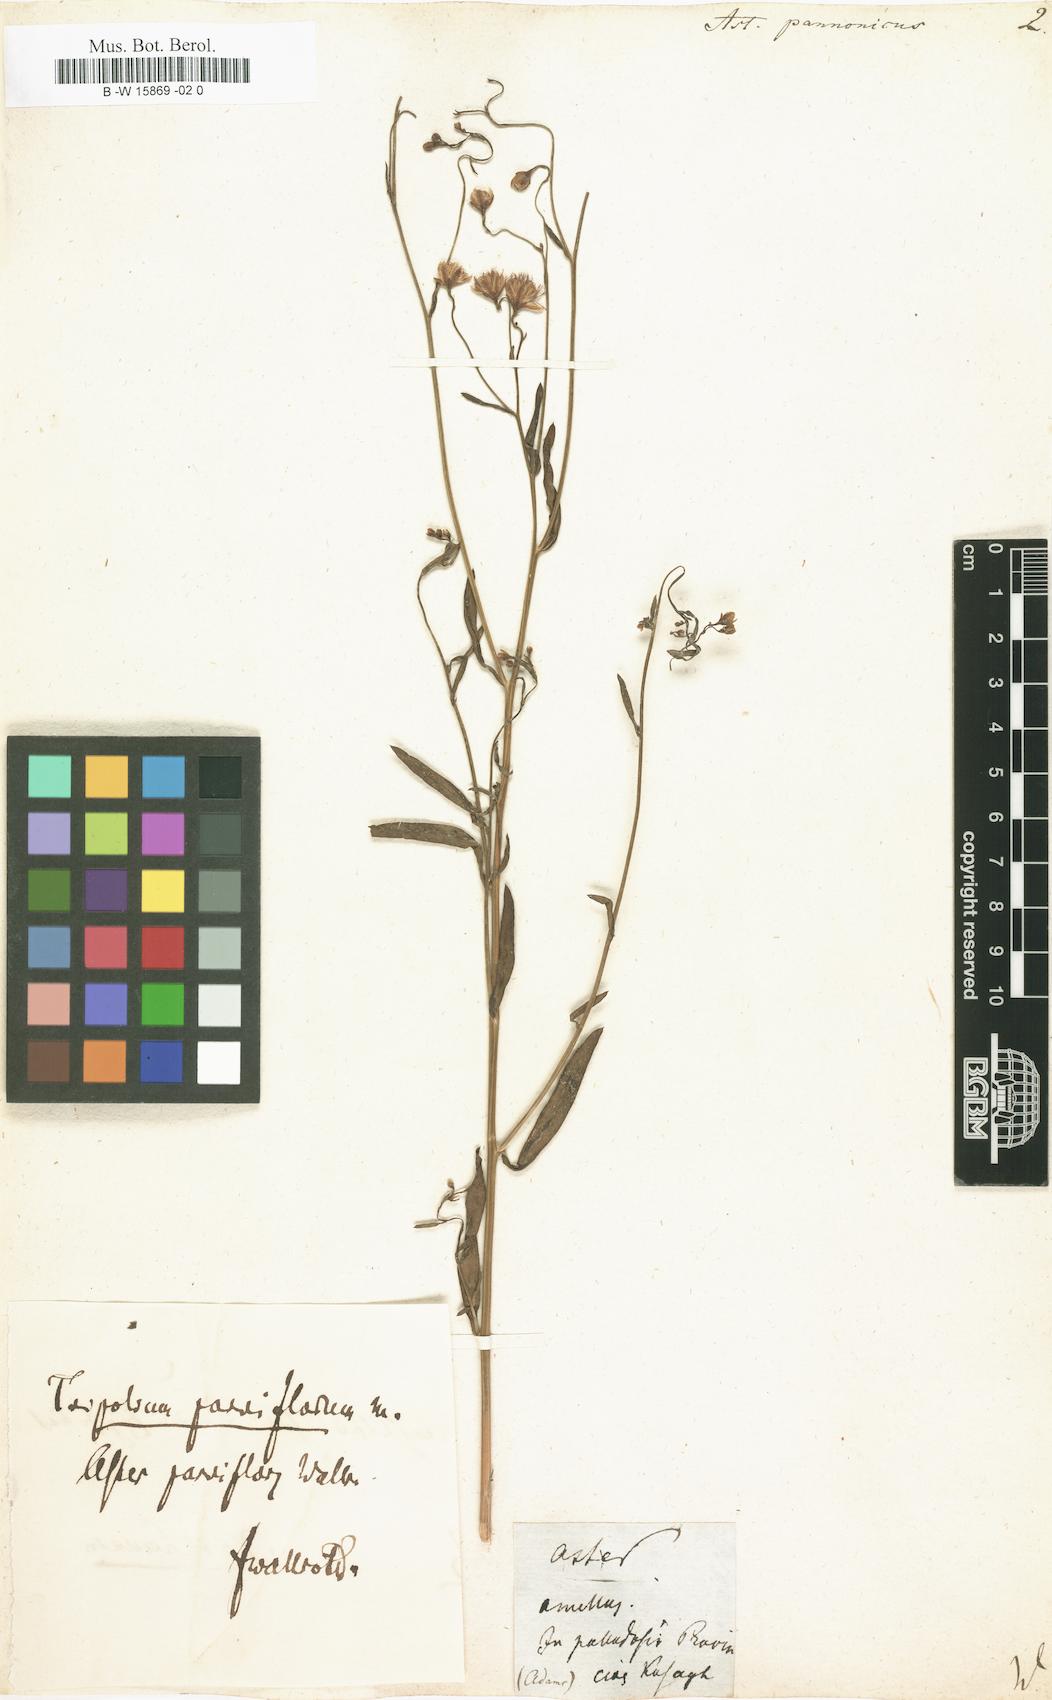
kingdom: Plantae
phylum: Tracheophyta
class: Magnoliopsida
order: Asterales
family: Asteraceae
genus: Tripolium
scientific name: Tripolium pannonicum
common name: Sea aster
